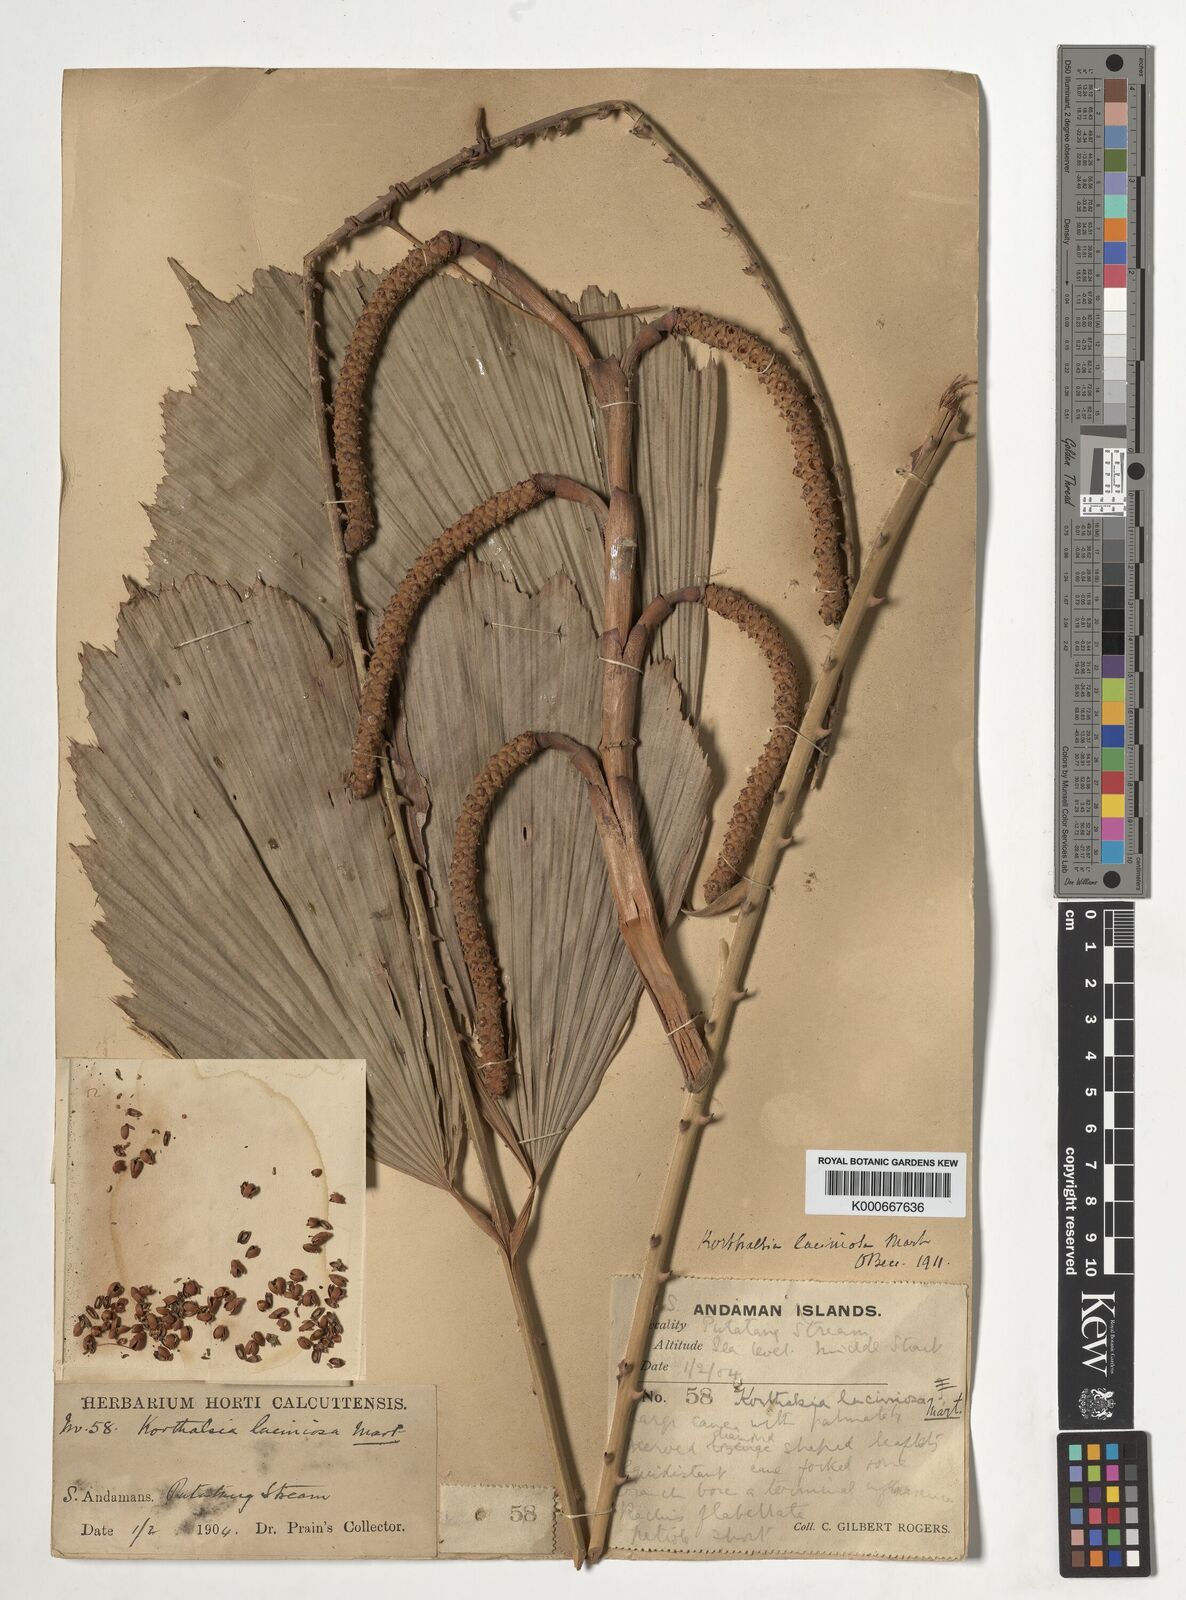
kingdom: Plantae
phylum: Tracheophyta
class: Liliopsida
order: Arecales
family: Arecaceae
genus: Korthalsia
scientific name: Korthalsia laciniosa
